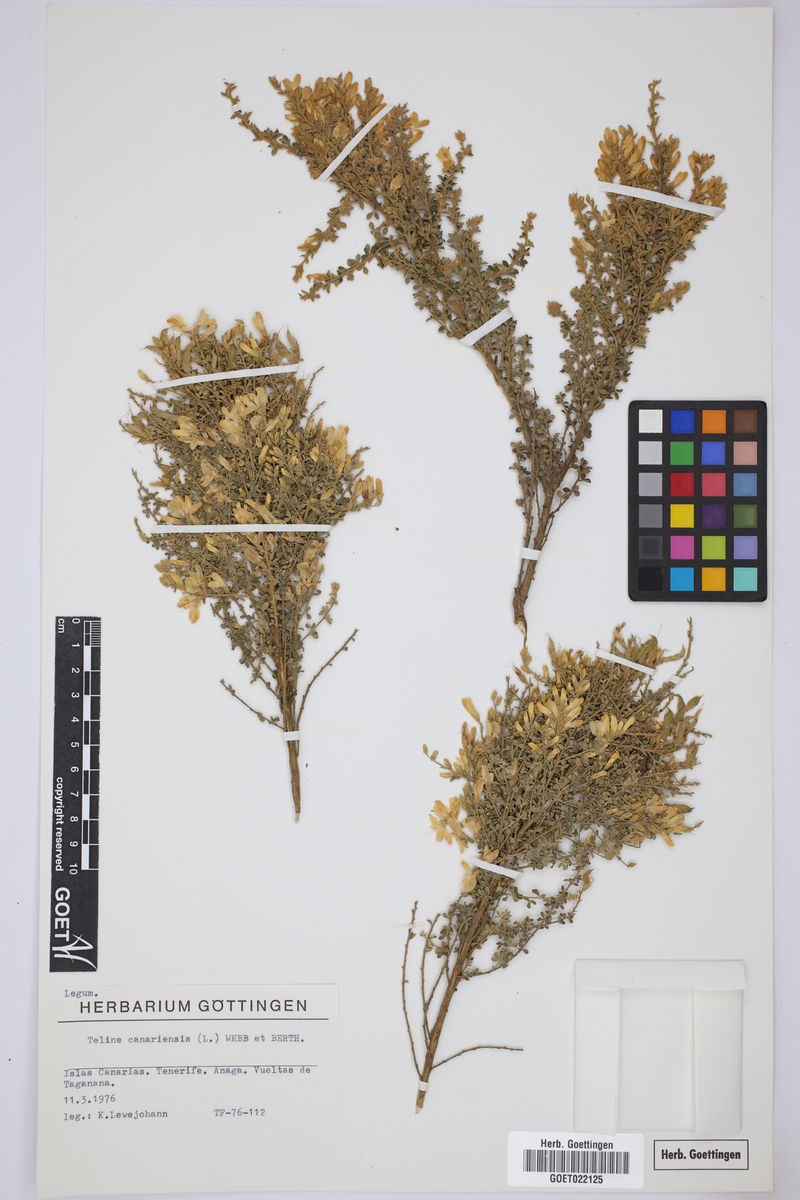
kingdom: Plantae
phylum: Tracheophyta
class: Magnoliopsida
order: Fabales
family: Fabaceae
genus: Genista
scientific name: Genista canariensis
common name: Canary broom
